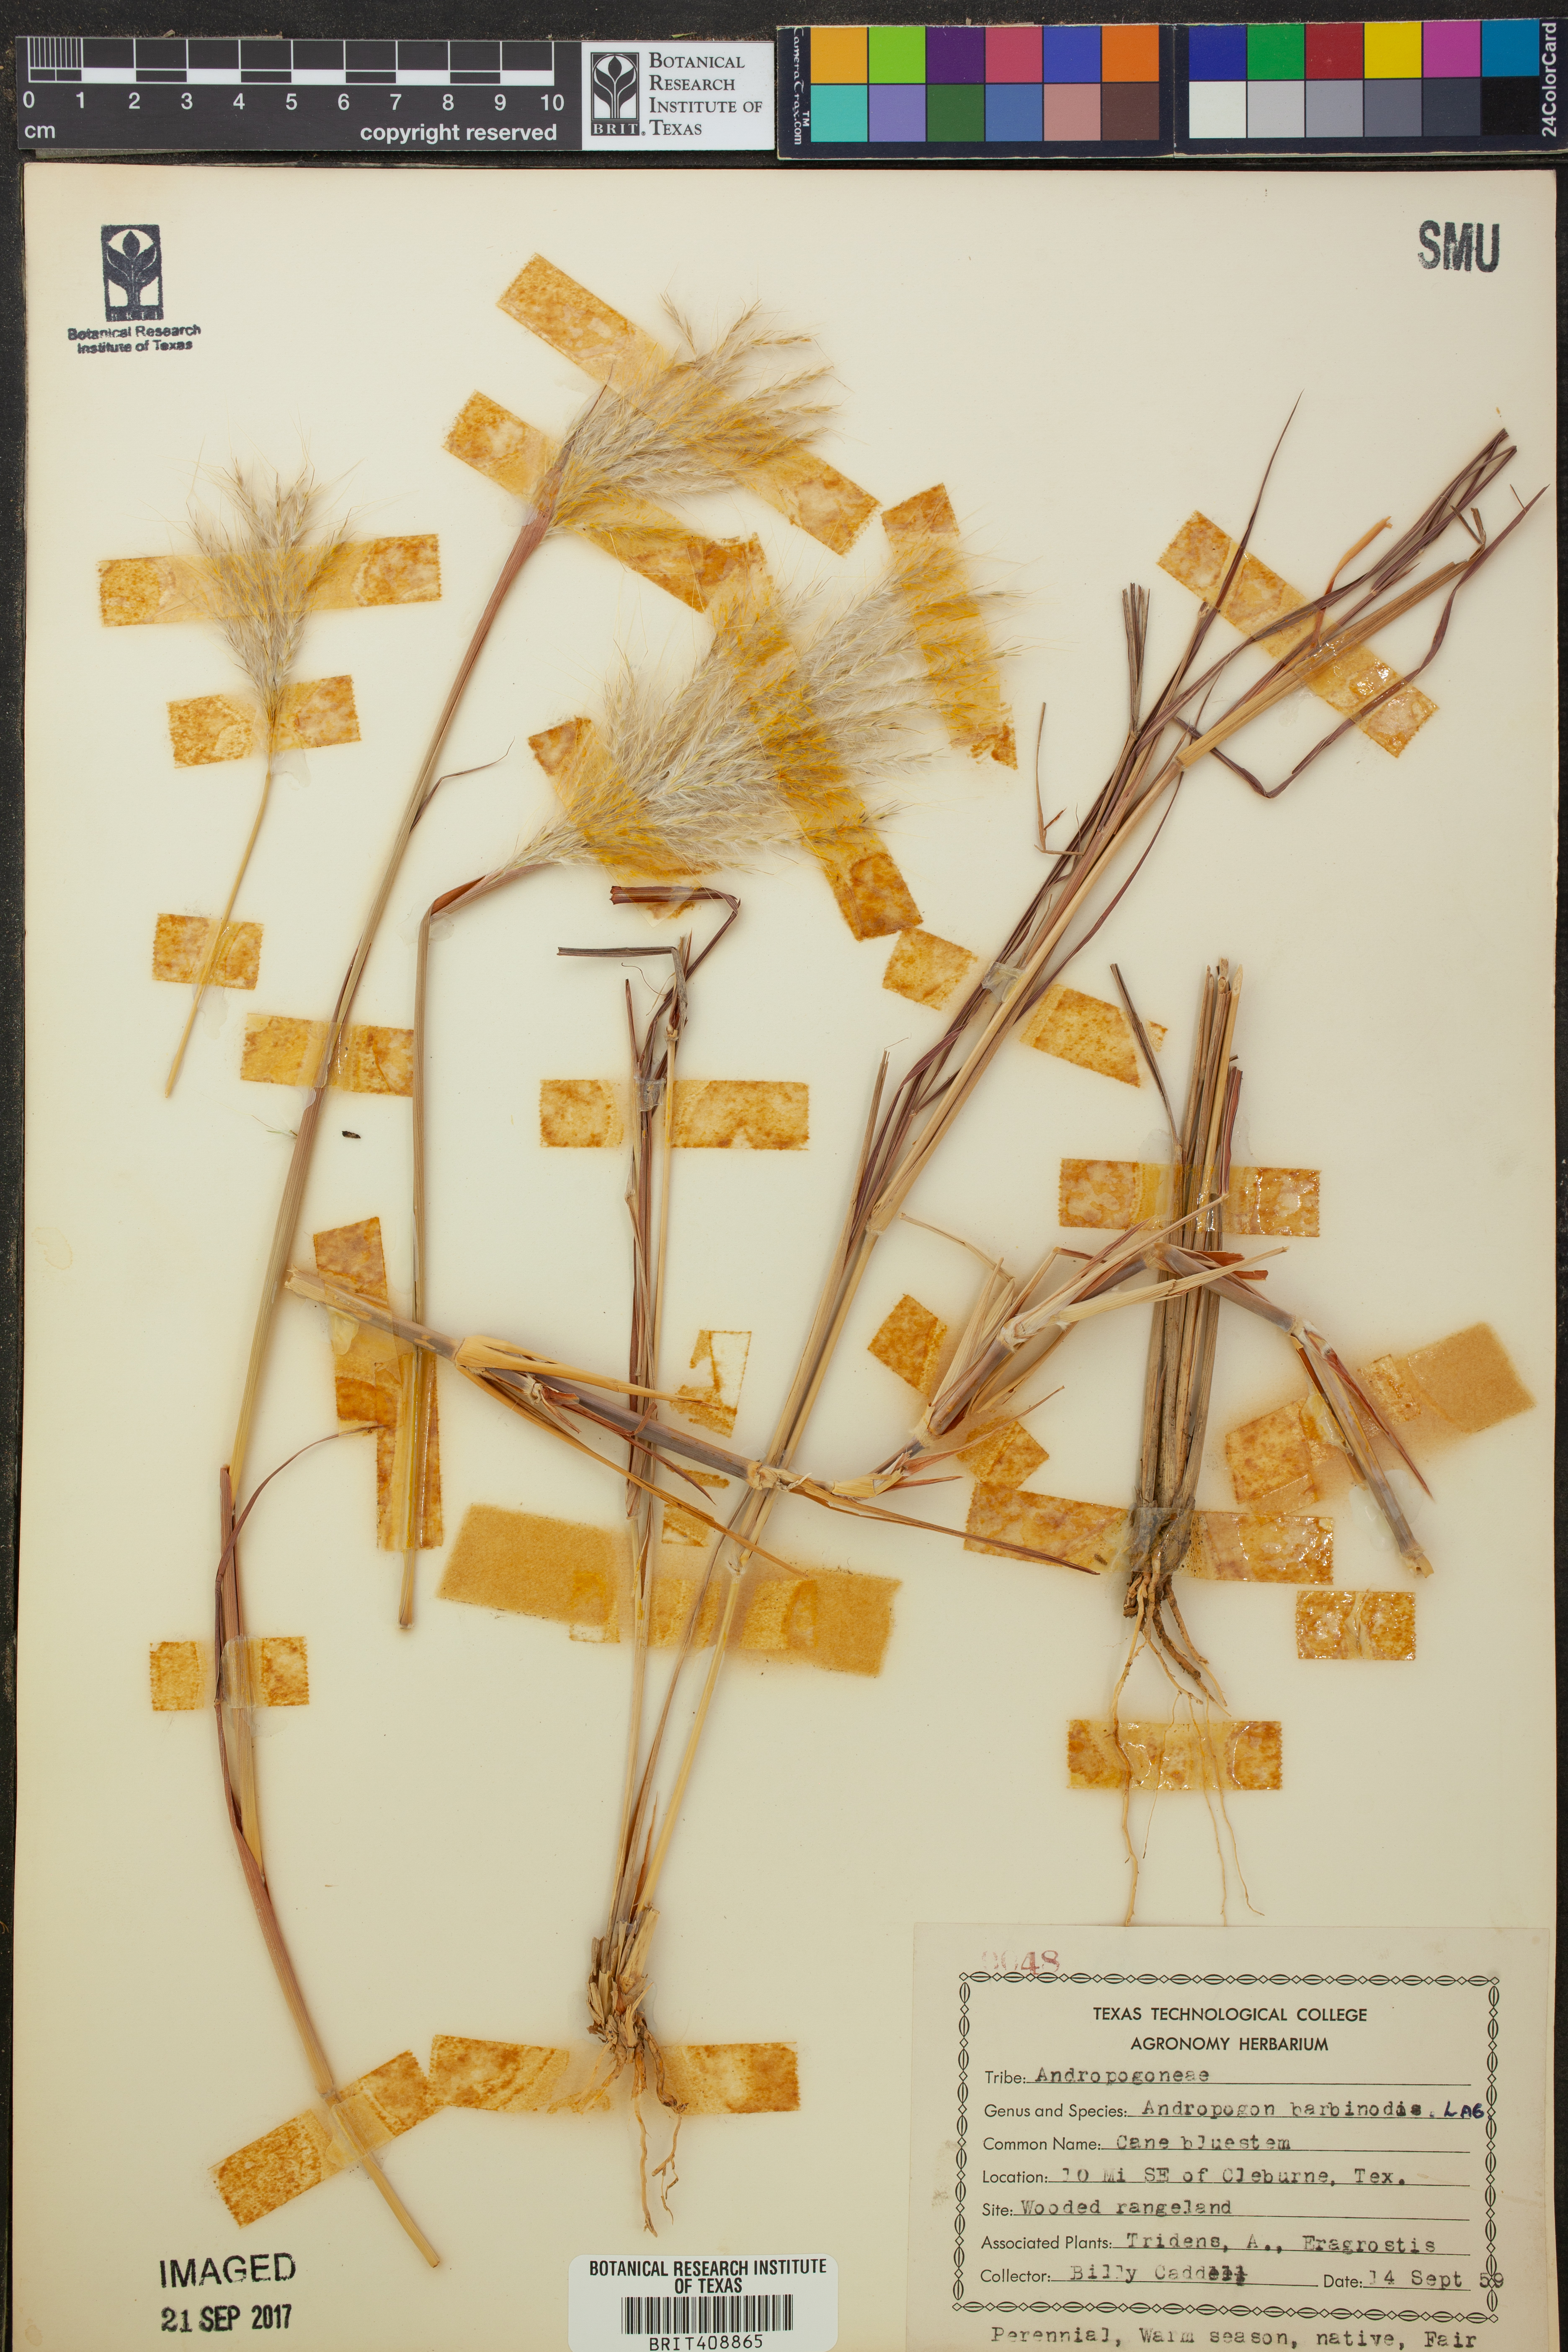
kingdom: Plantae
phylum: Tracheophyta
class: Liliopsida
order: Poales
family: Poaceae
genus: Bothriochloa
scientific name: Bothriochloa barbinodis
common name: Cane bluestem
